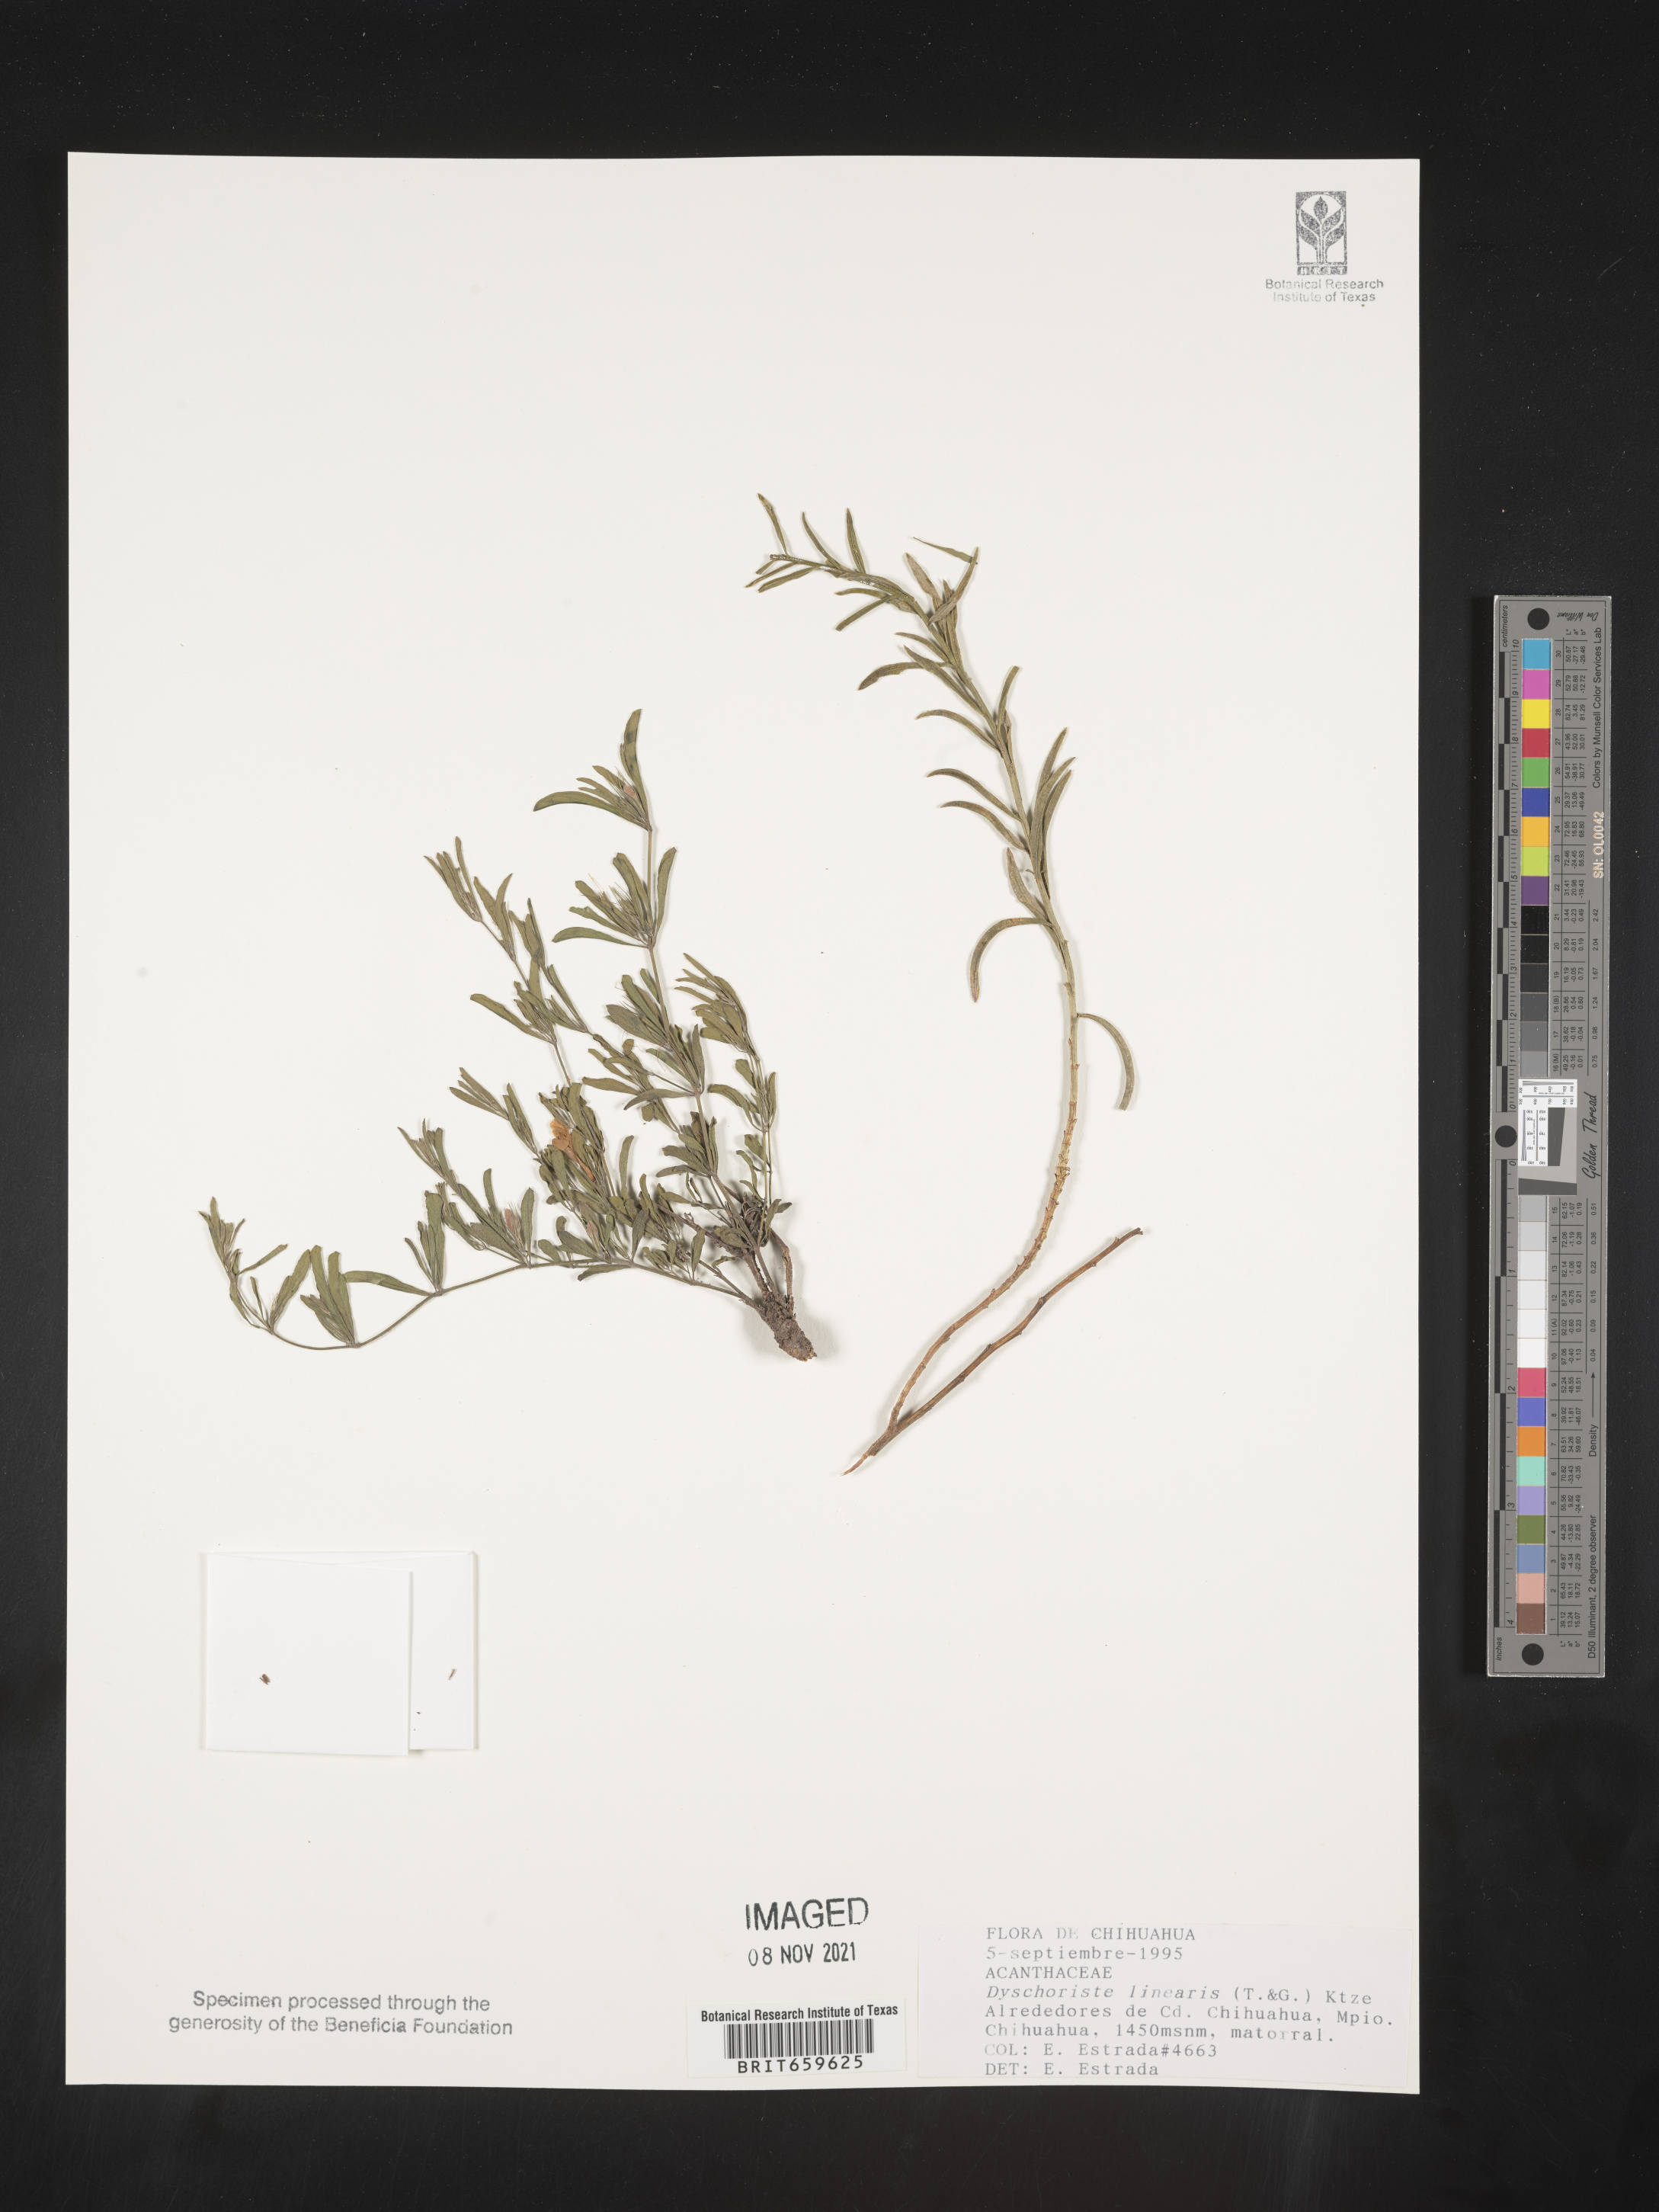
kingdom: Plantae
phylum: Tracheophyta
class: Magnoliopsida
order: Lamiales
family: Acanthaceae
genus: Dyschoriste
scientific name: Dyschoriste
